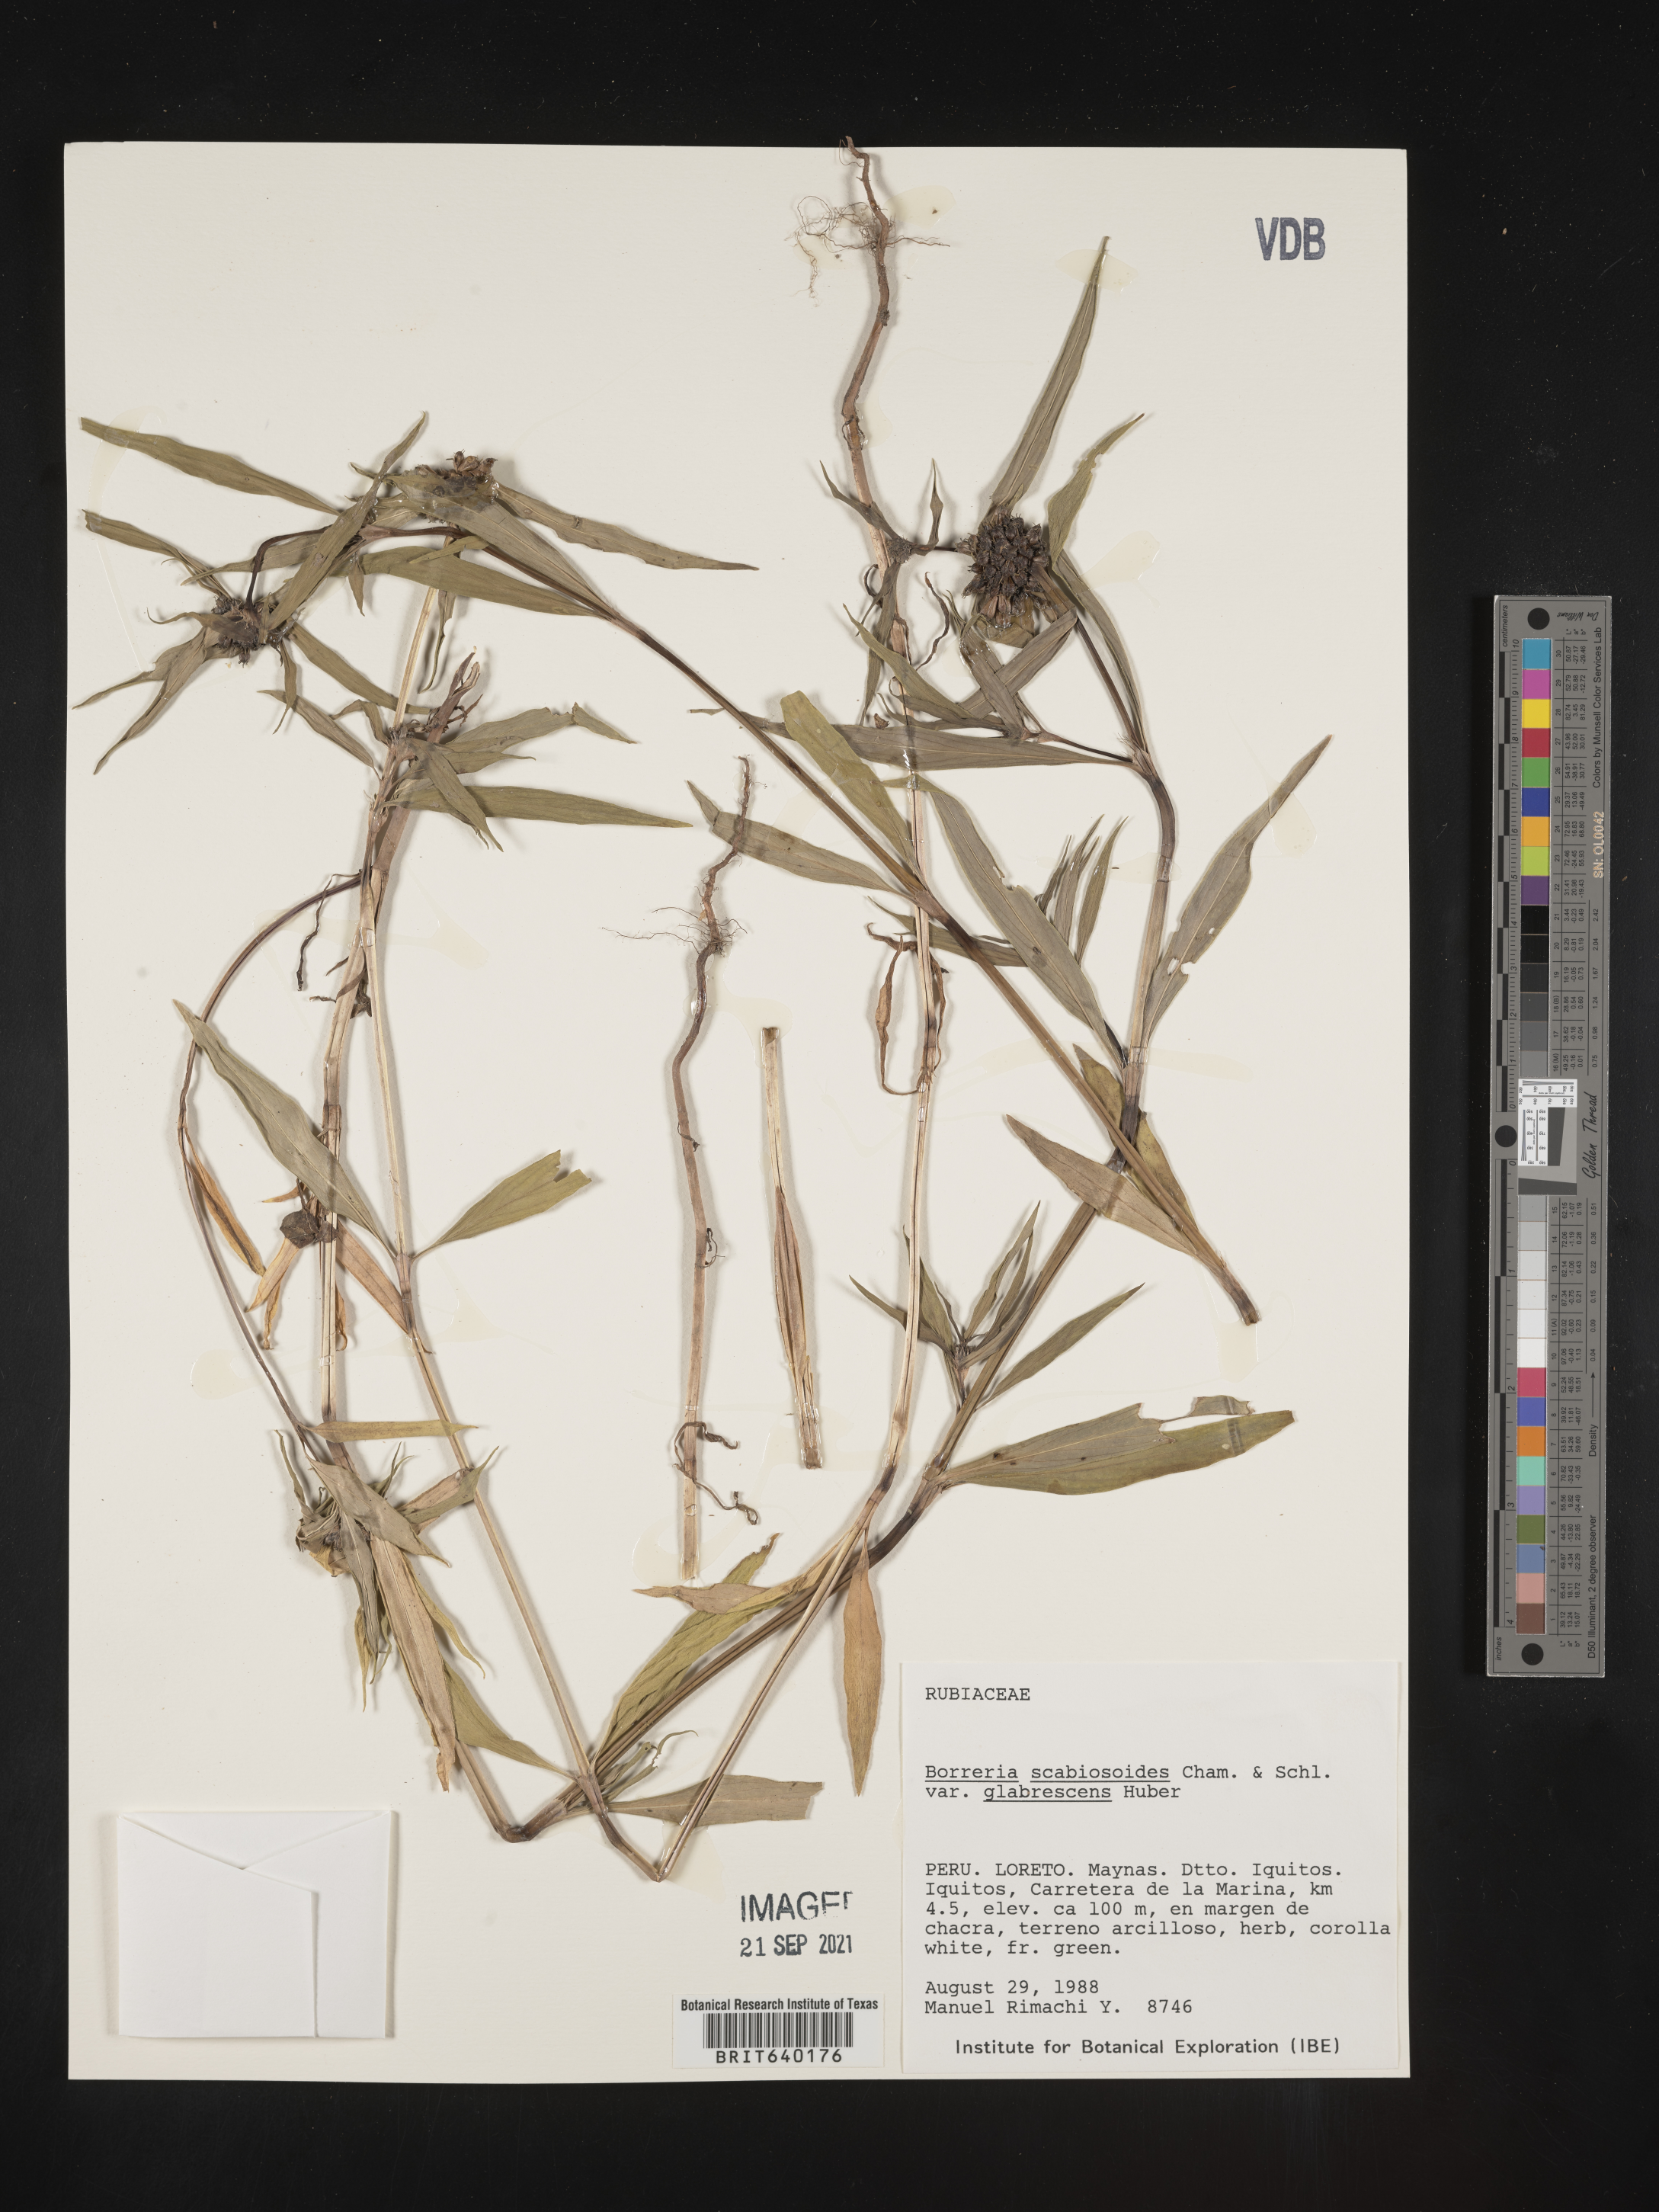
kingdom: Plantae
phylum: Tracheophyta
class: Magnoliopsida
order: Gentianales
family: Rubiaceae
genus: Spermacoce
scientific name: Spermacoce
